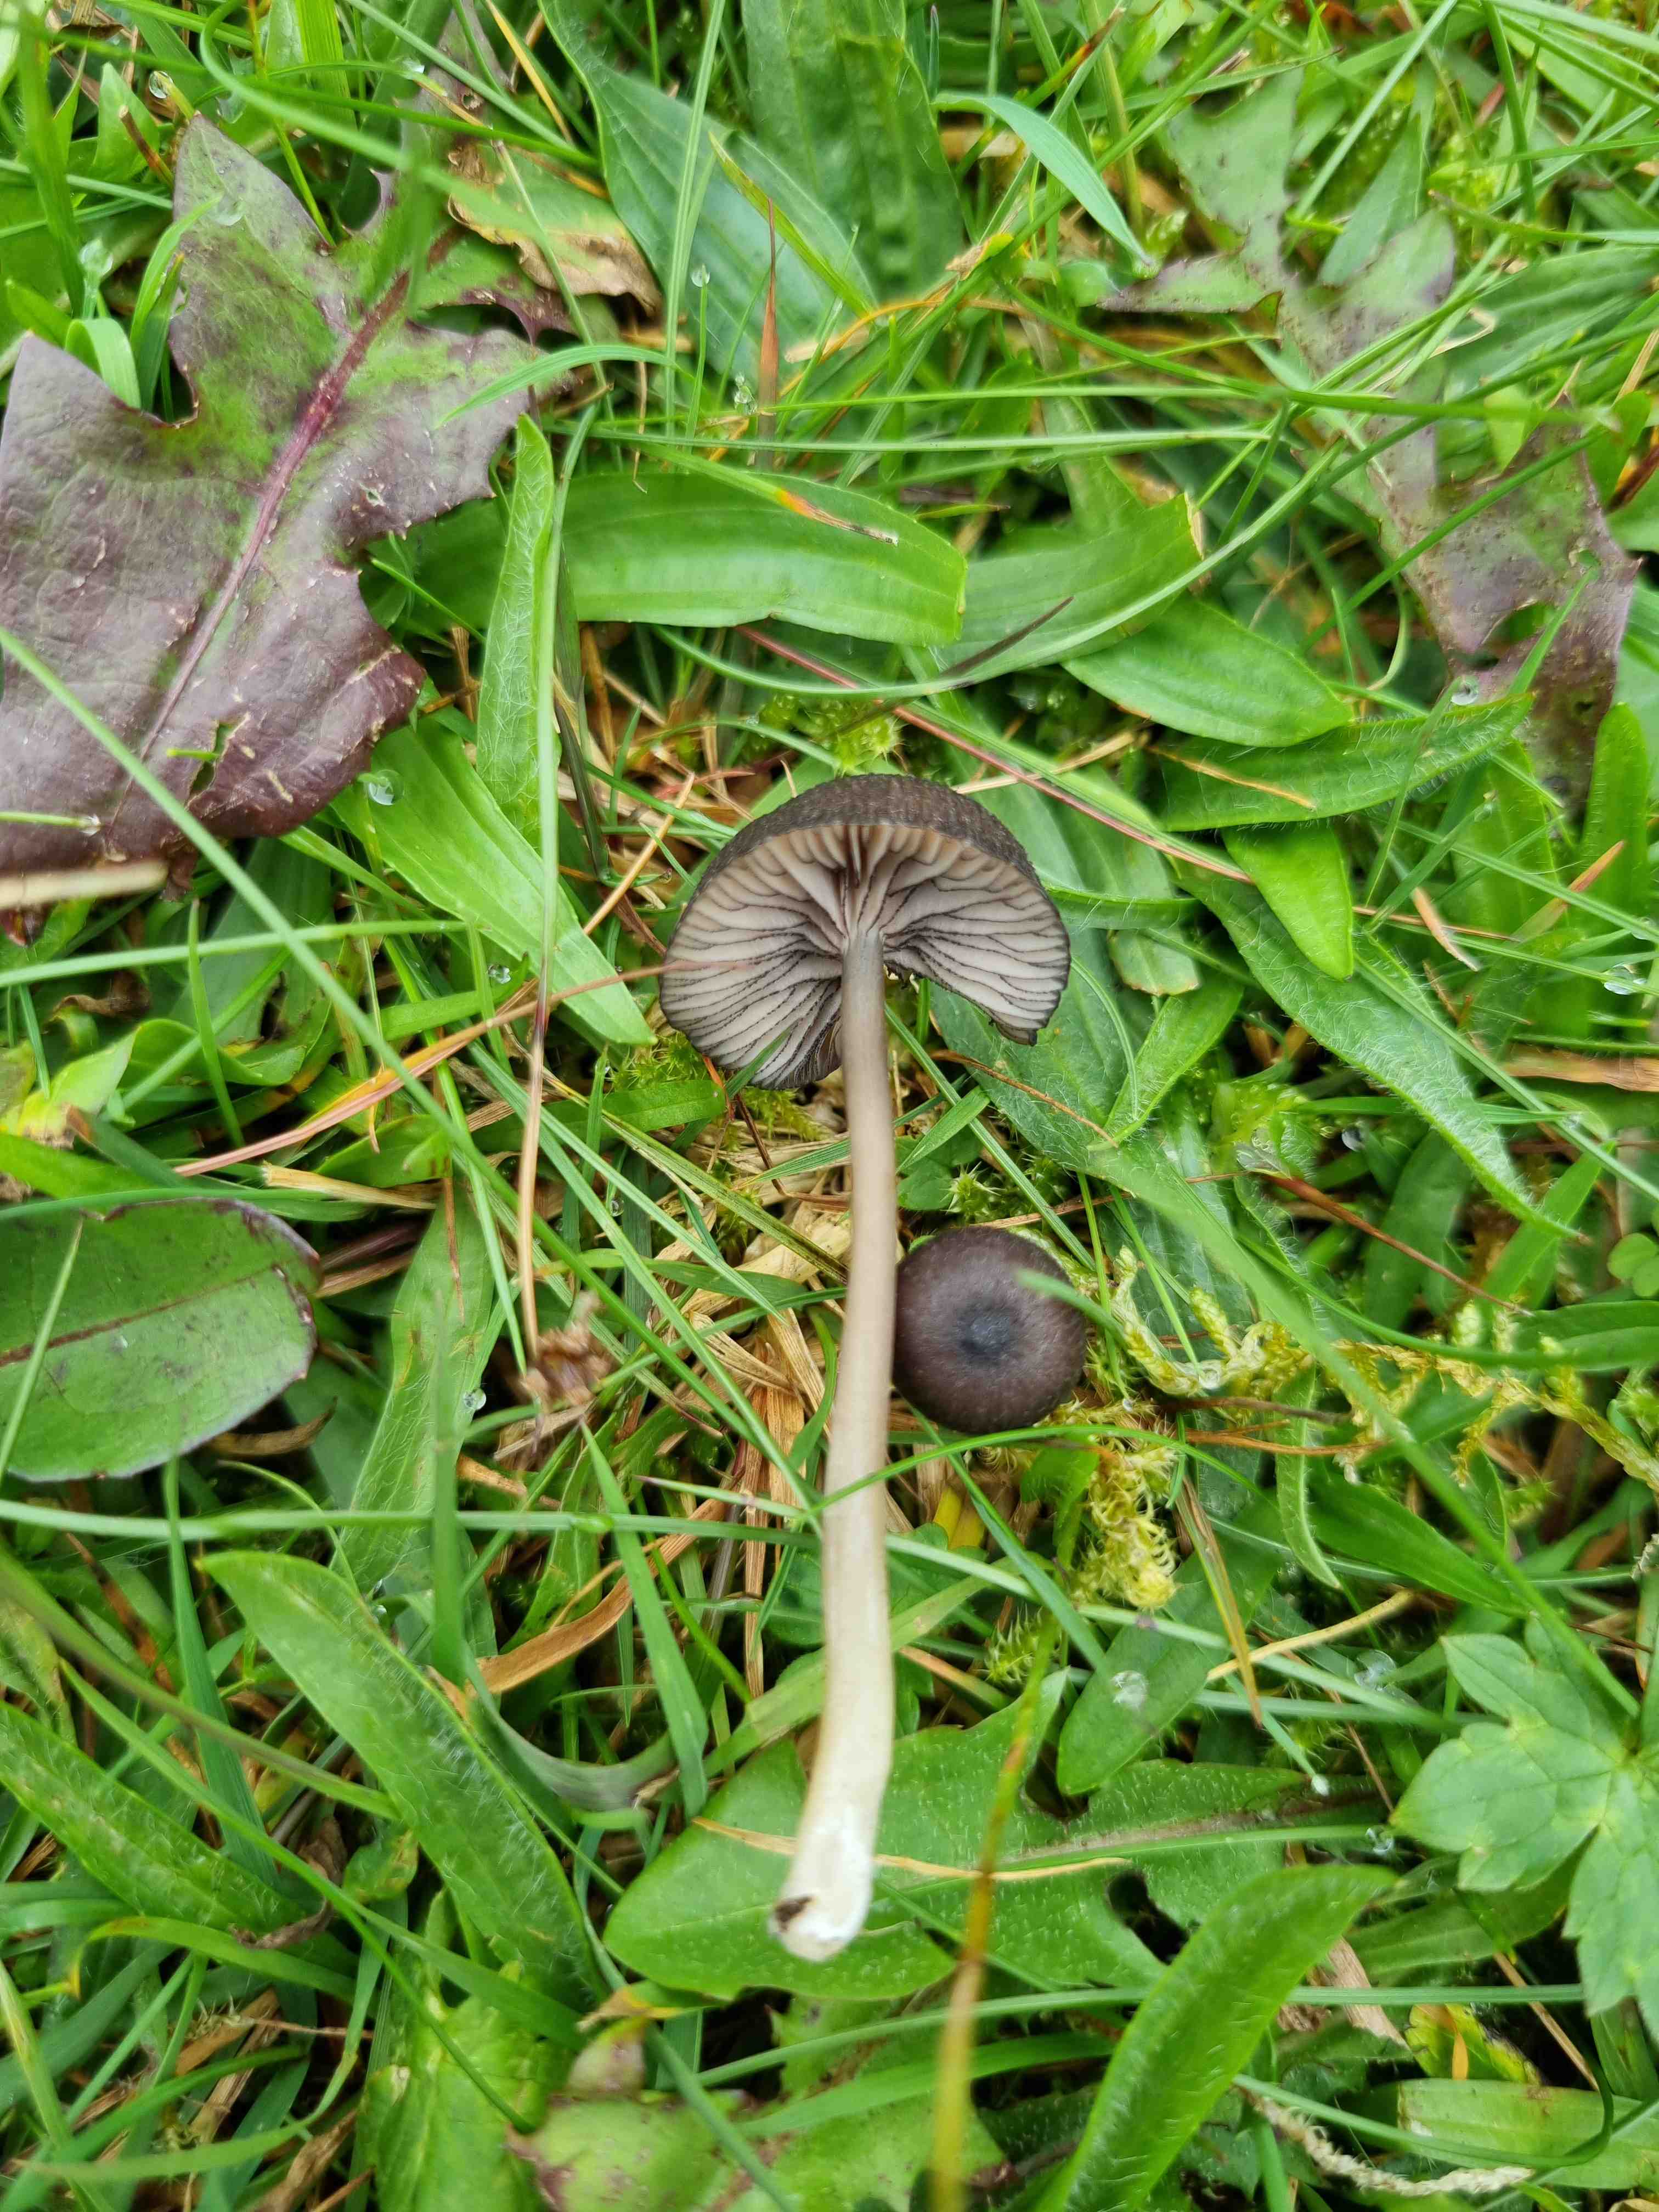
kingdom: Fungi
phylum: Basidiomycota
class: Agaricomycetes
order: Agaricales
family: Entolomataceae
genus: Entoloma
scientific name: Entoloma
